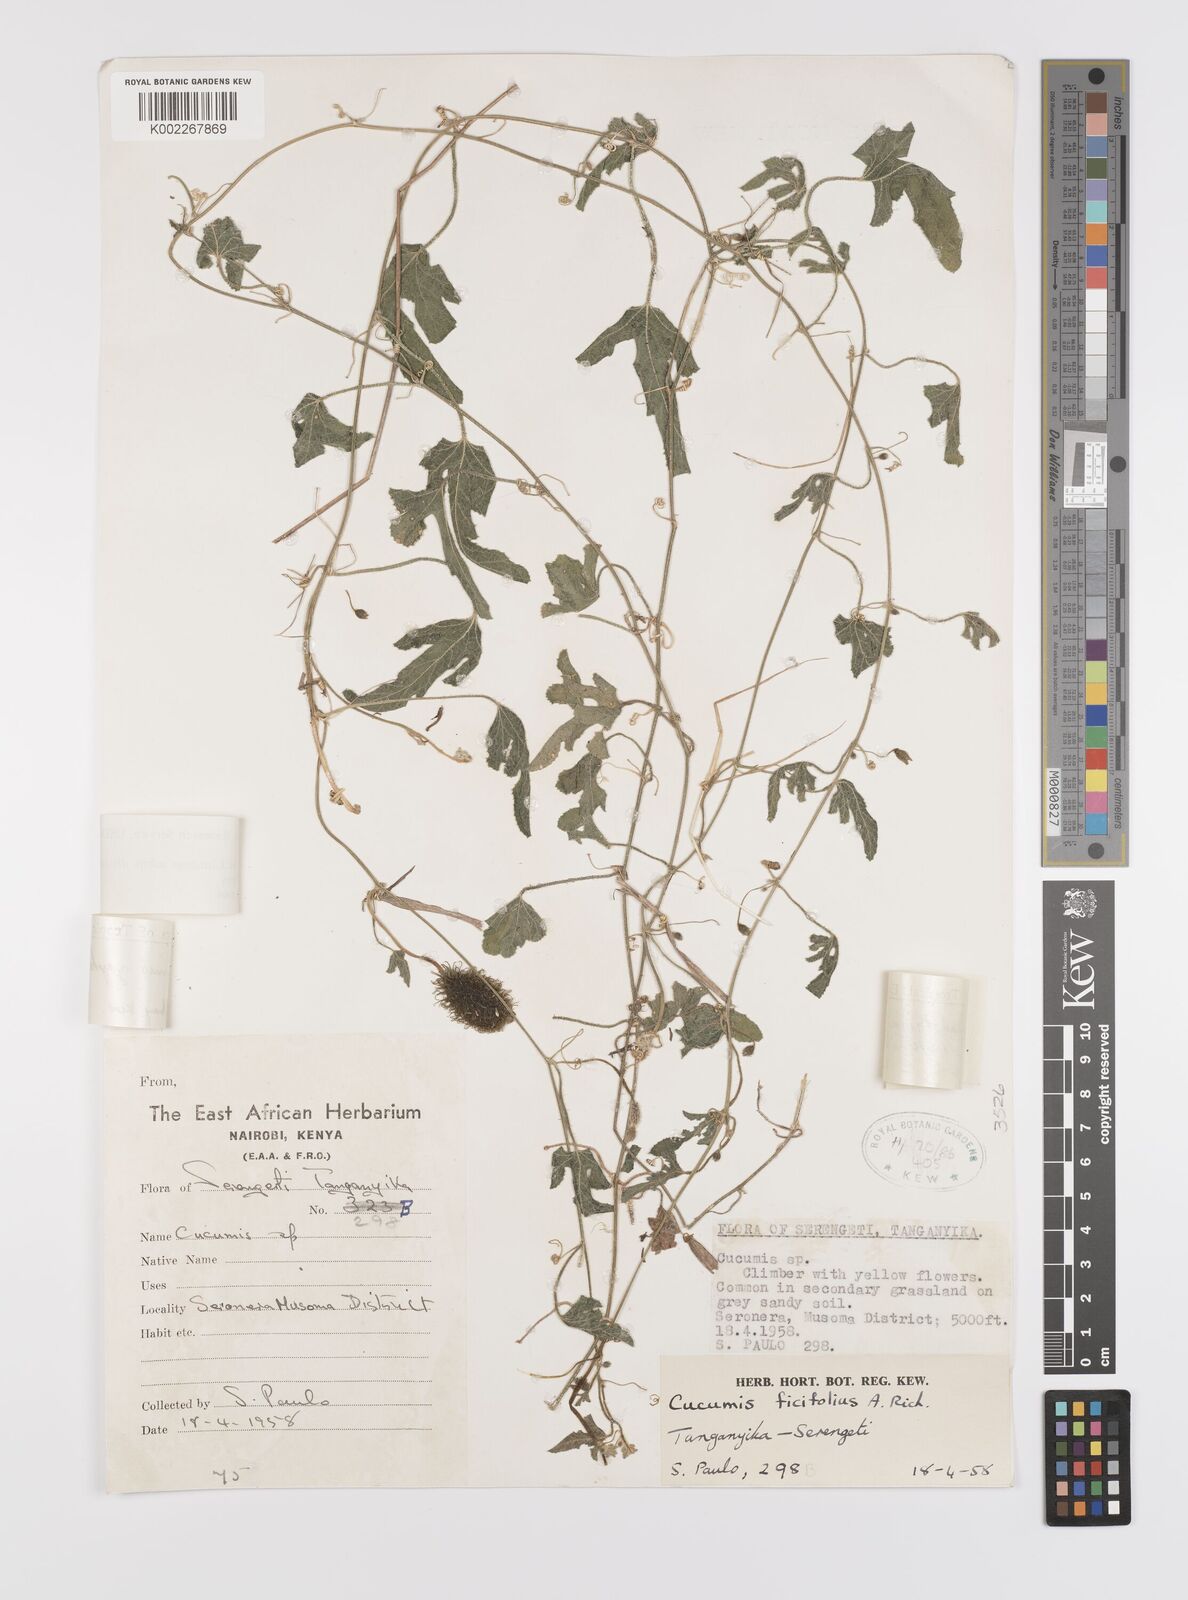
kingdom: Plantae
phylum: Tracheophyta
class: Magnoliopsida
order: Cucurbitales
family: Cucurbitaceae
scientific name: Cucurbitaceae
